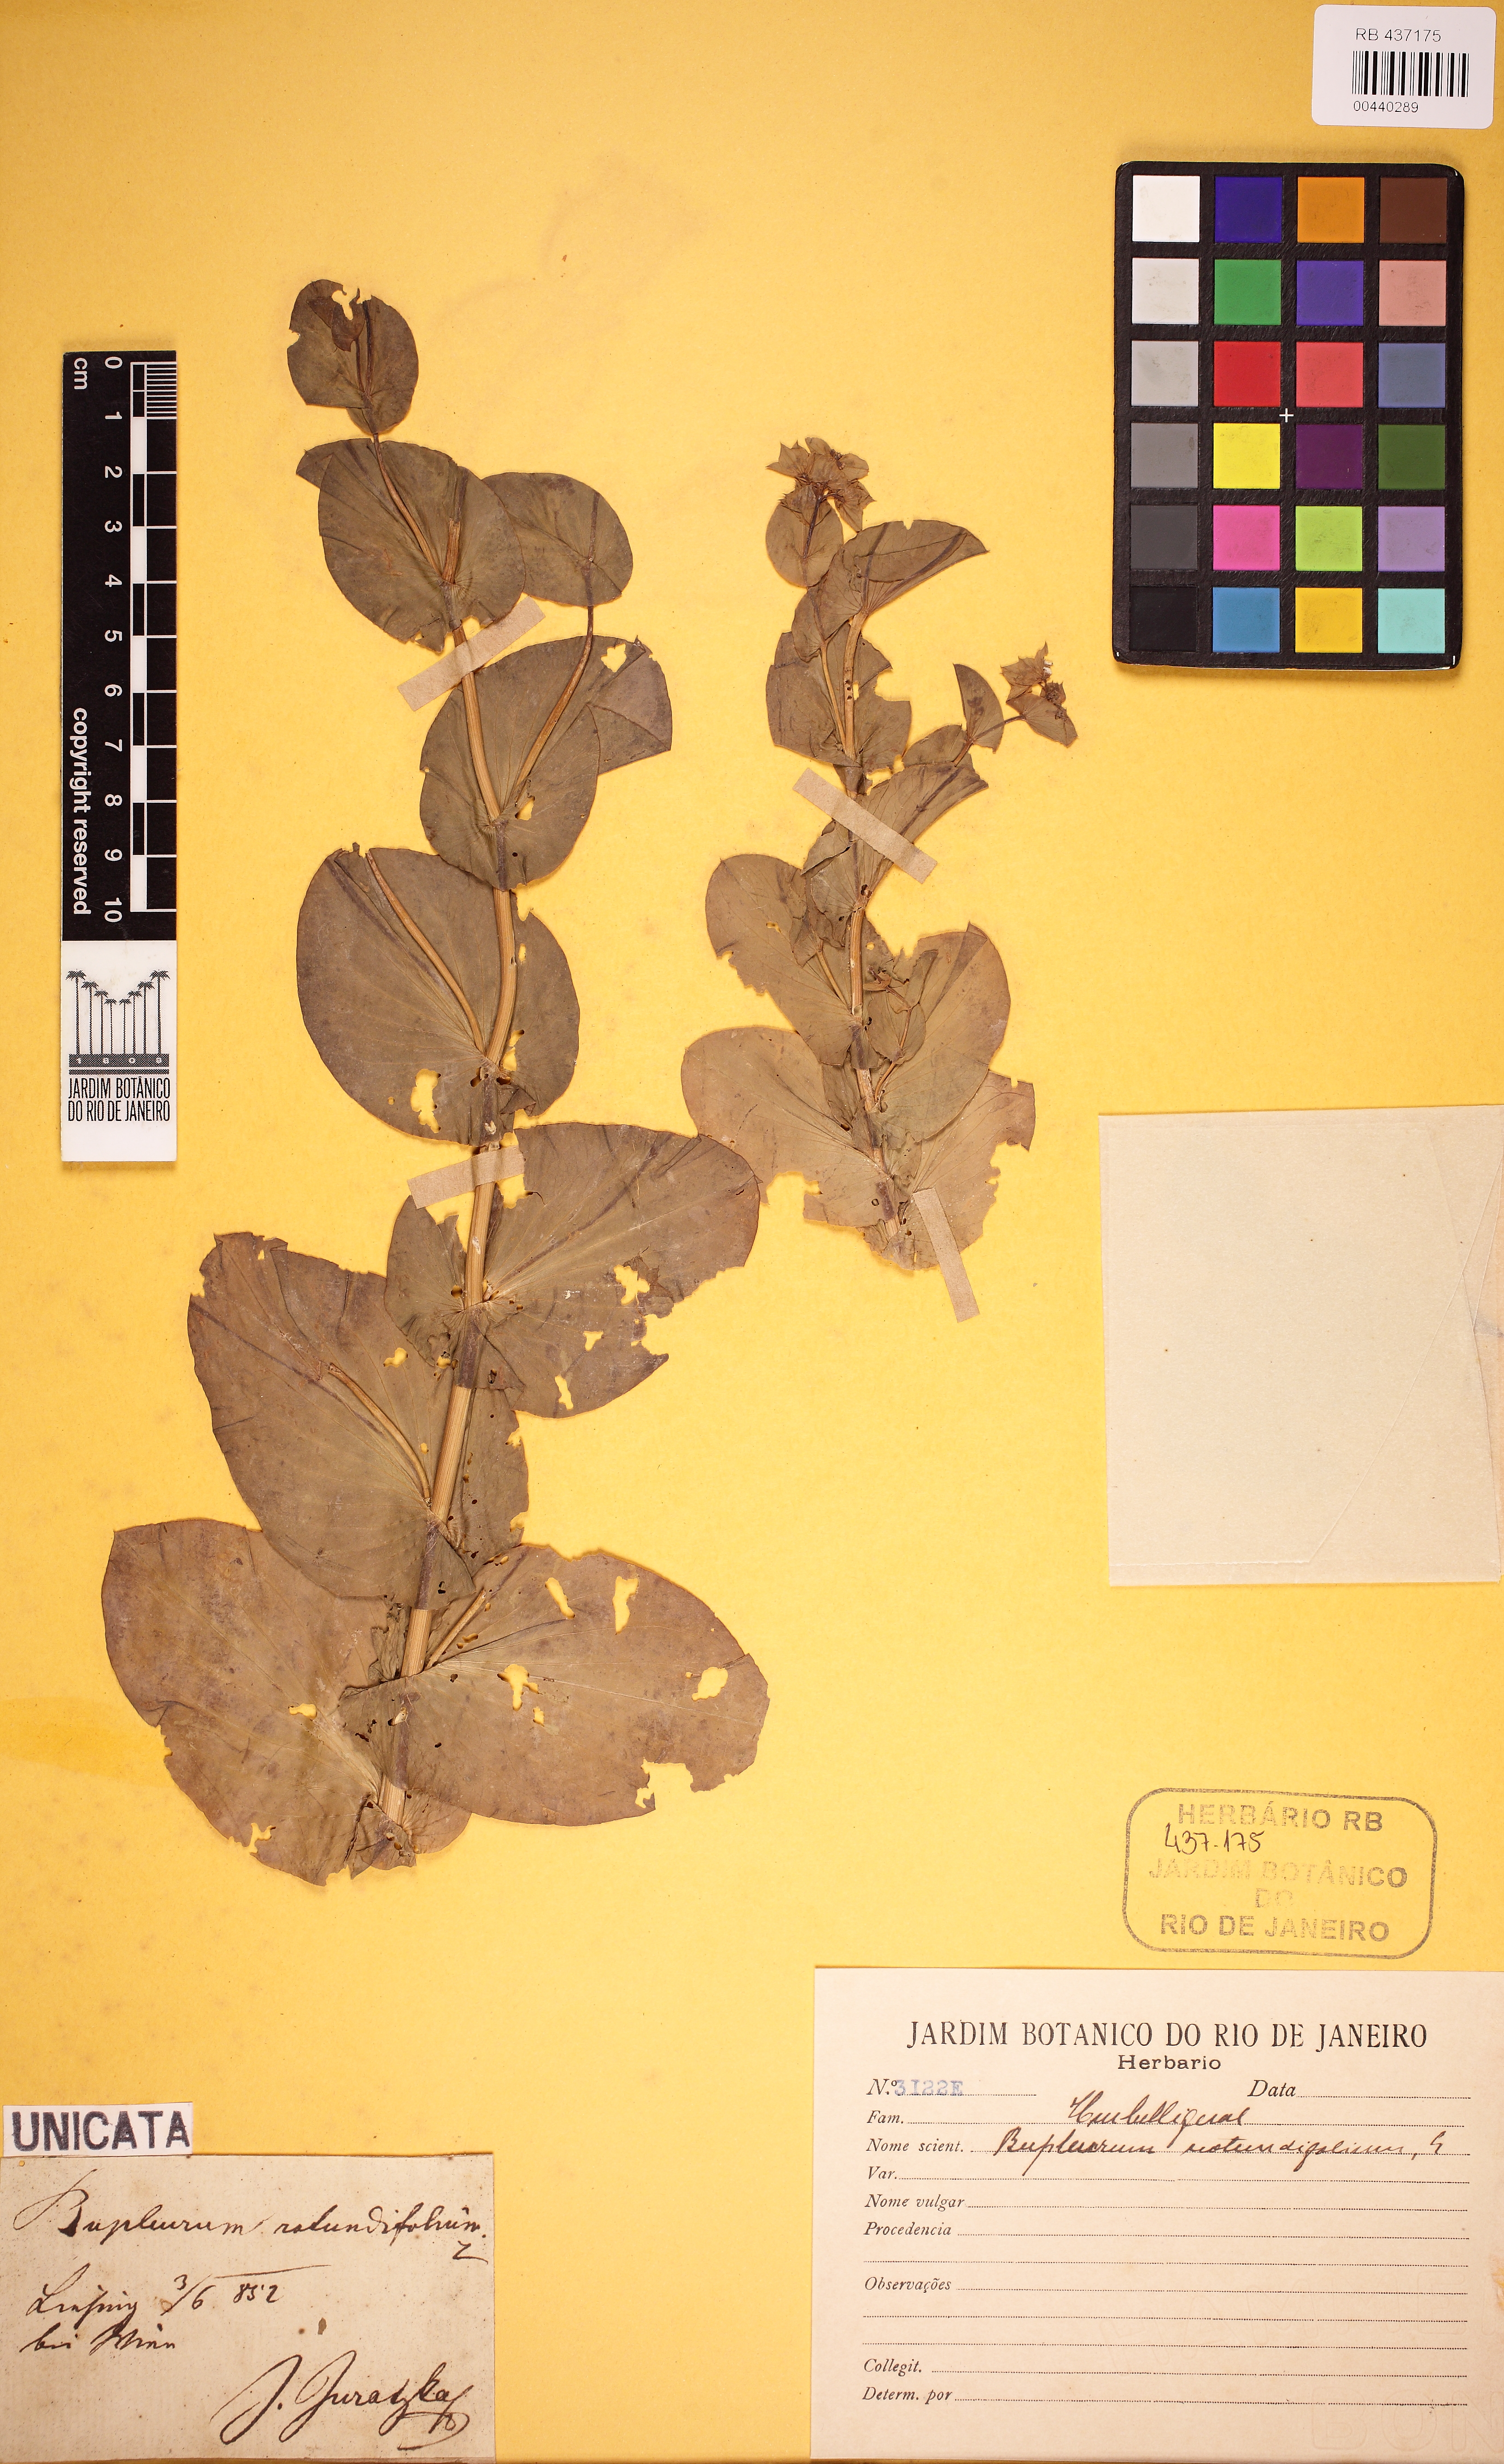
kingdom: Plantae
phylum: Tracheophyta
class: Magnoliopsida
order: Apiales
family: Apiaceae
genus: Bupleurum
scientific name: Bupleurum rotundifolium
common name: Thorow-wax
